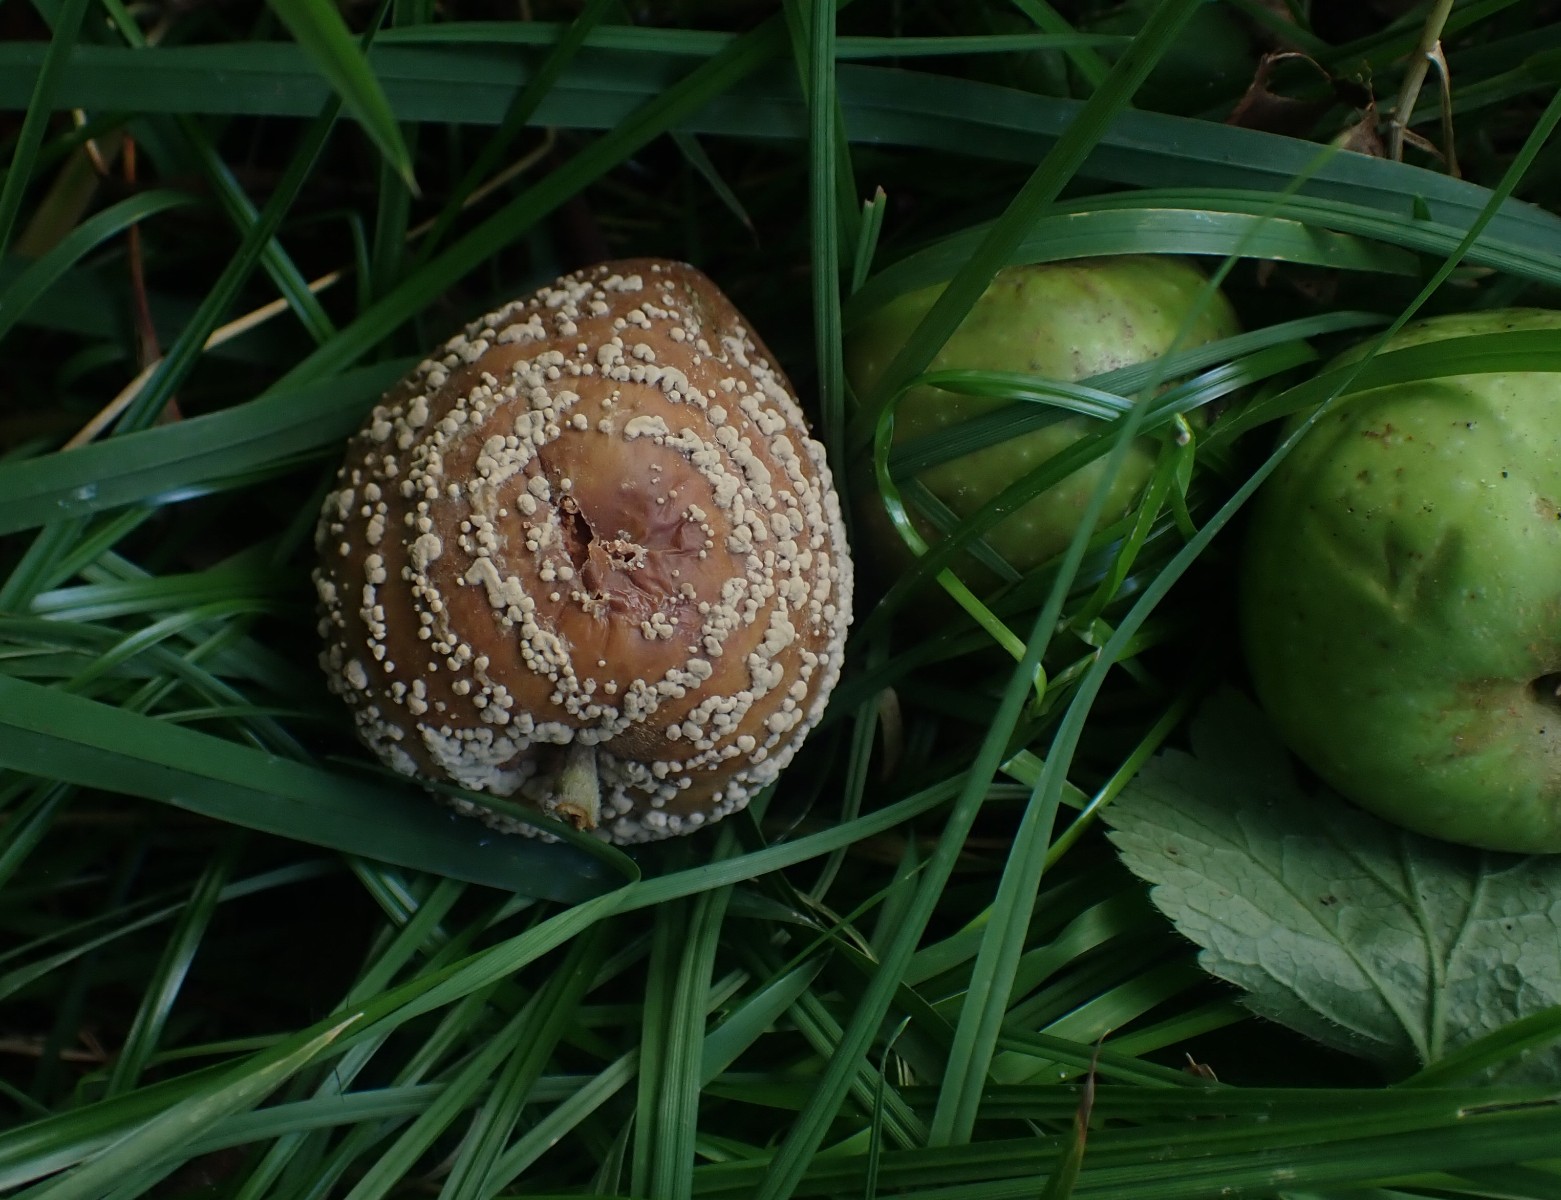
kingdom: Fungi
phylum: Ascomycota
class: Leotiomycetes
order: Helotiales
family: Sclerotiniaceae
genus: Monilinia
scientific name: Monilinia fructigena
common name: æble-knoldskive
